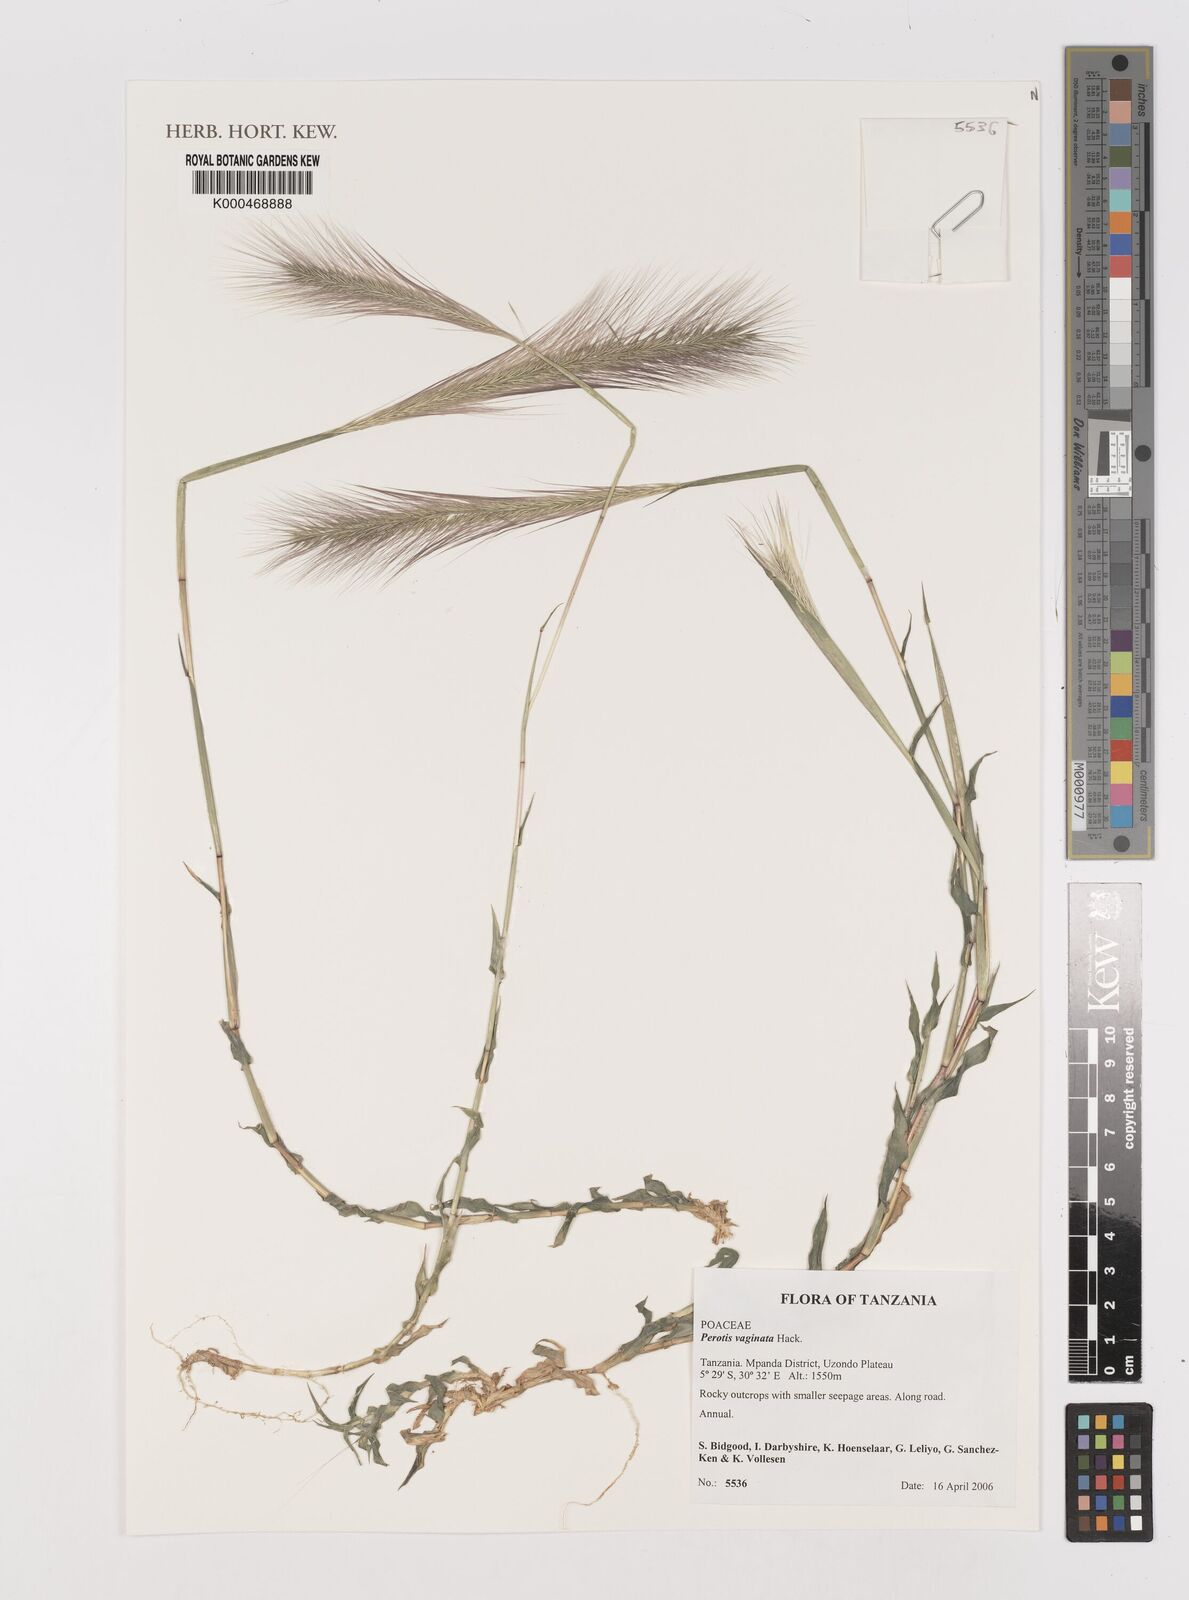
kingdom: Plantae
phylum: Tracheophyta
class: Liliopsida
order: Poales
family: Poaceae
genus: Perotis
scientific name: Perotis vaginata
